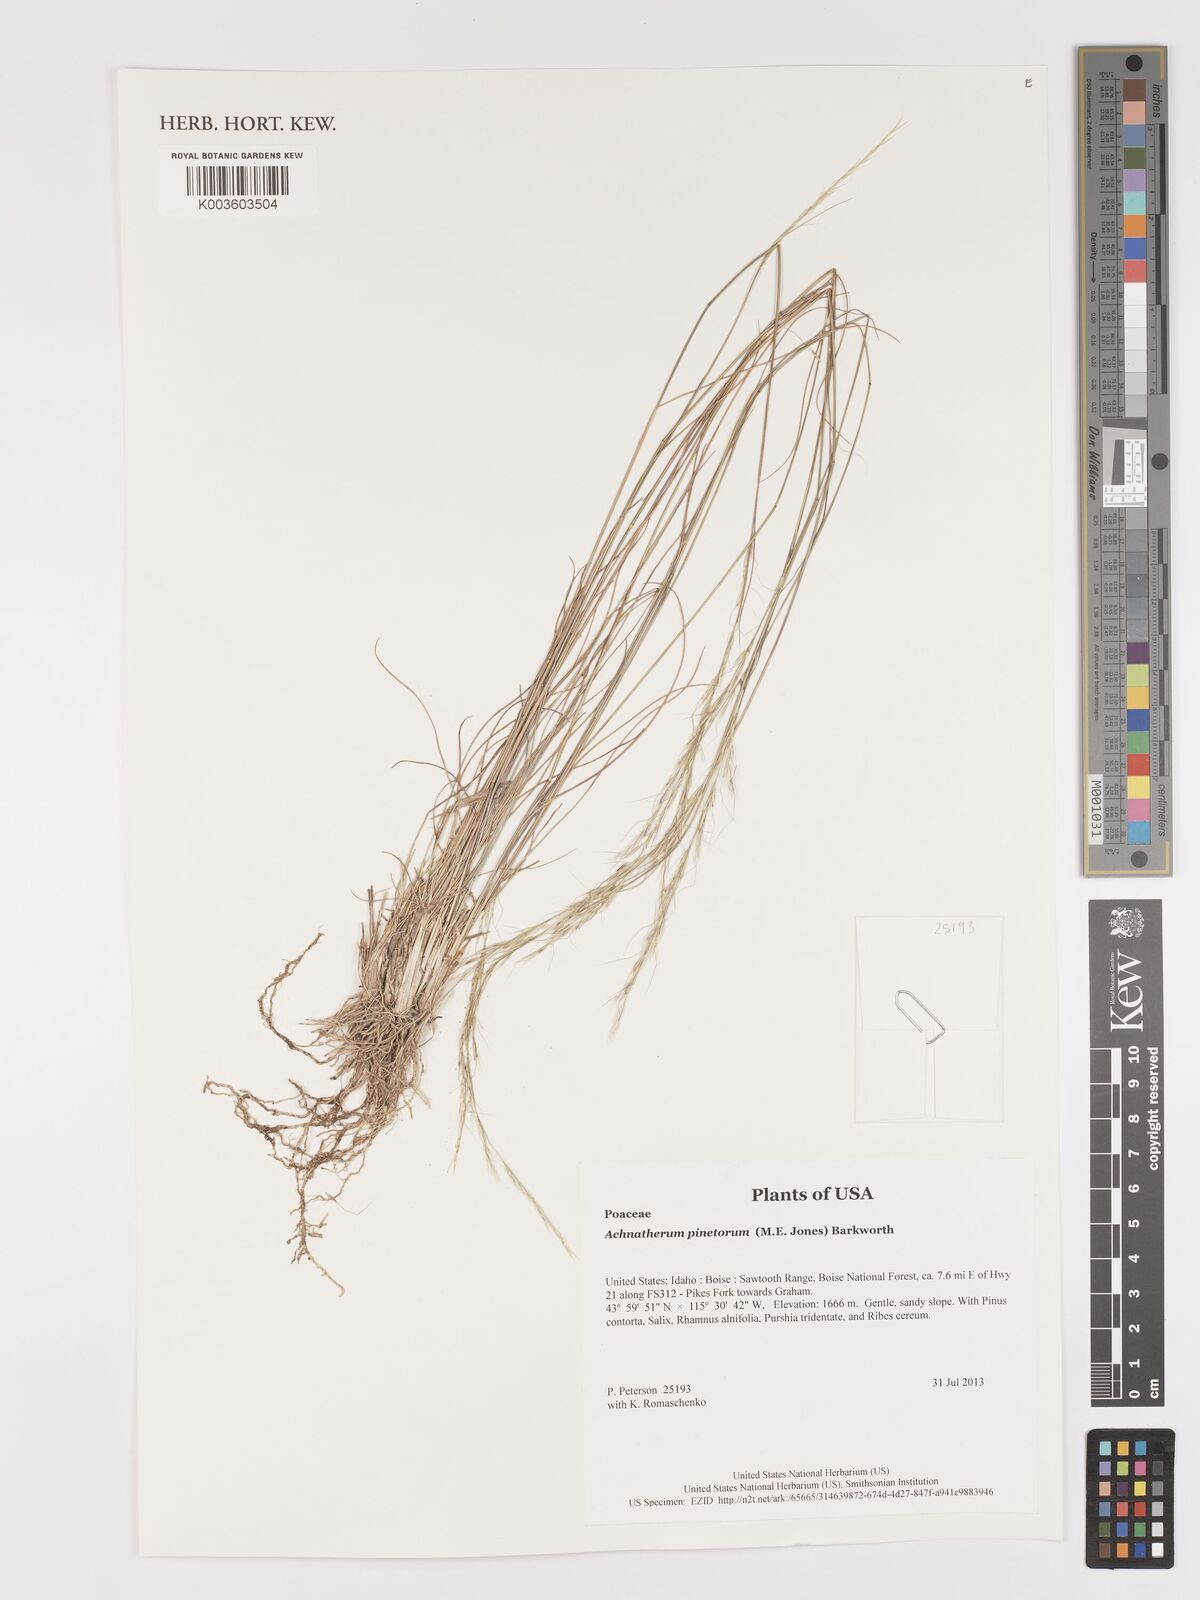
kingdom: Plantae
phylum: Tracheophyta
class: Liliopsida
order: Poales
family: Poaceae
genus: Eriocoma
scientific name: Eriocoma pinetorum
